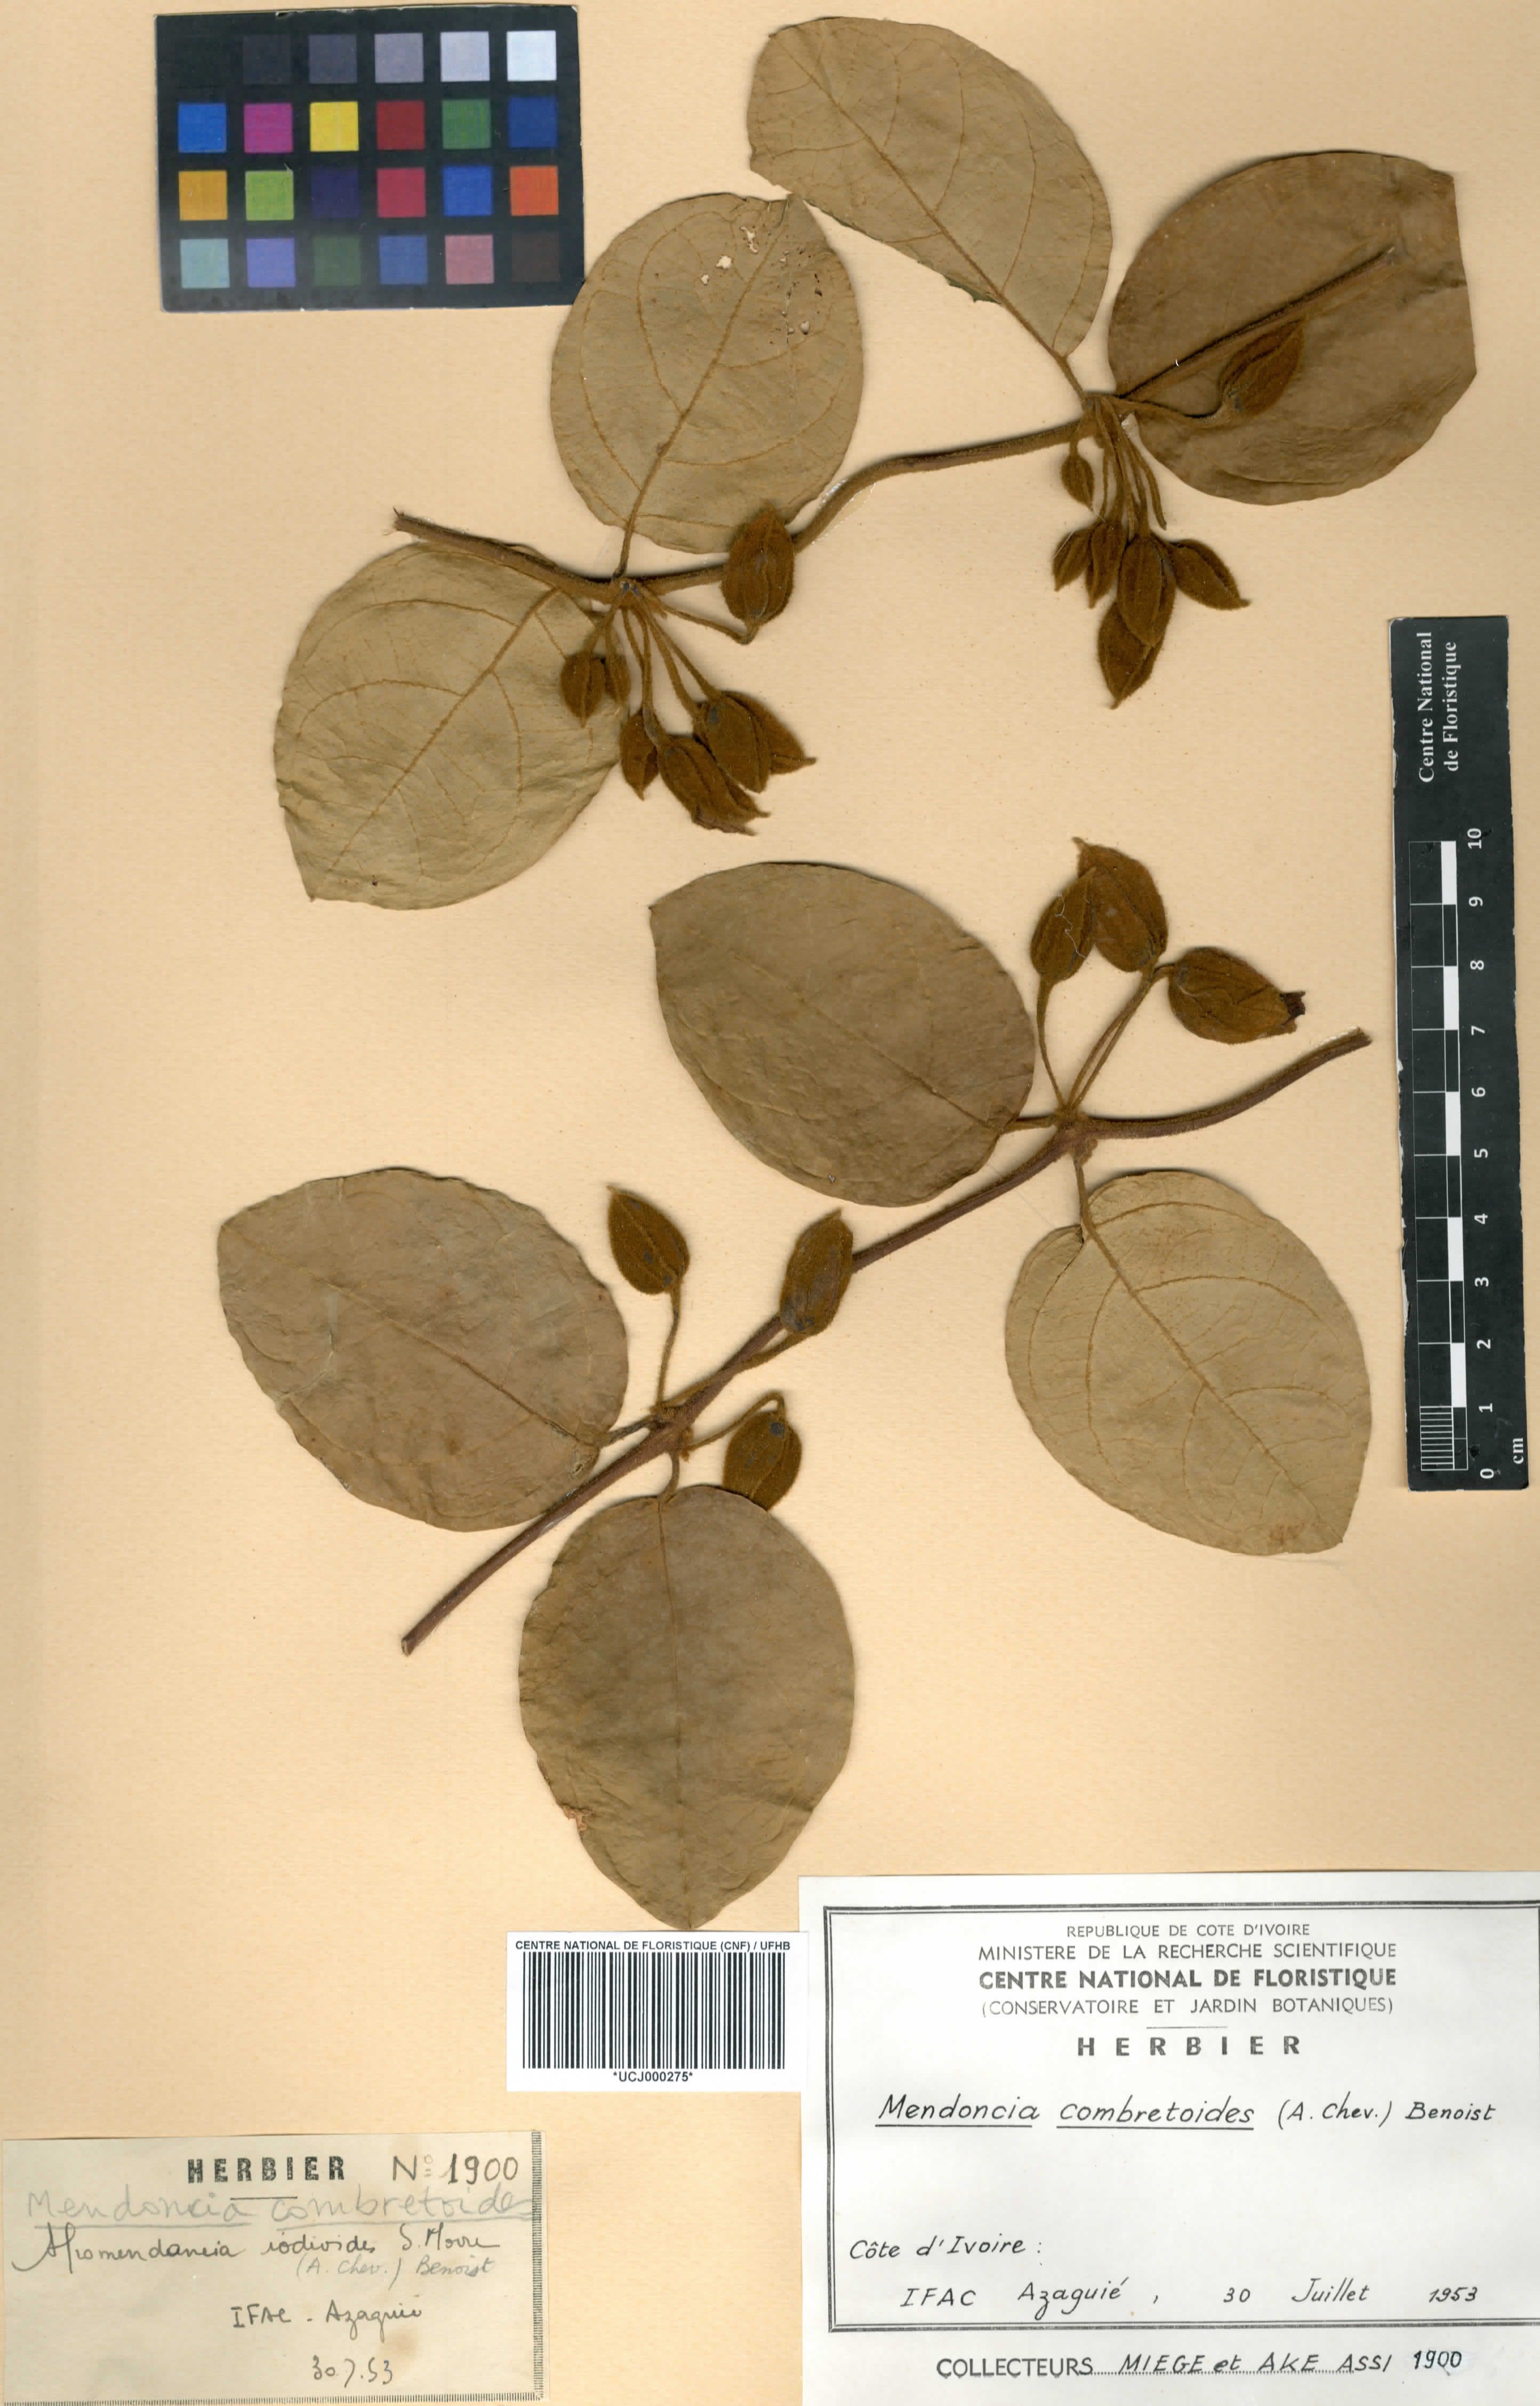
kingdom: Plantae
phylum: Tracheophyta
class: Magnoliopsida
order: Lamiales
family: Acanthaceae
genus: Mendoncia
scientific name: Mendoncia combretoides
